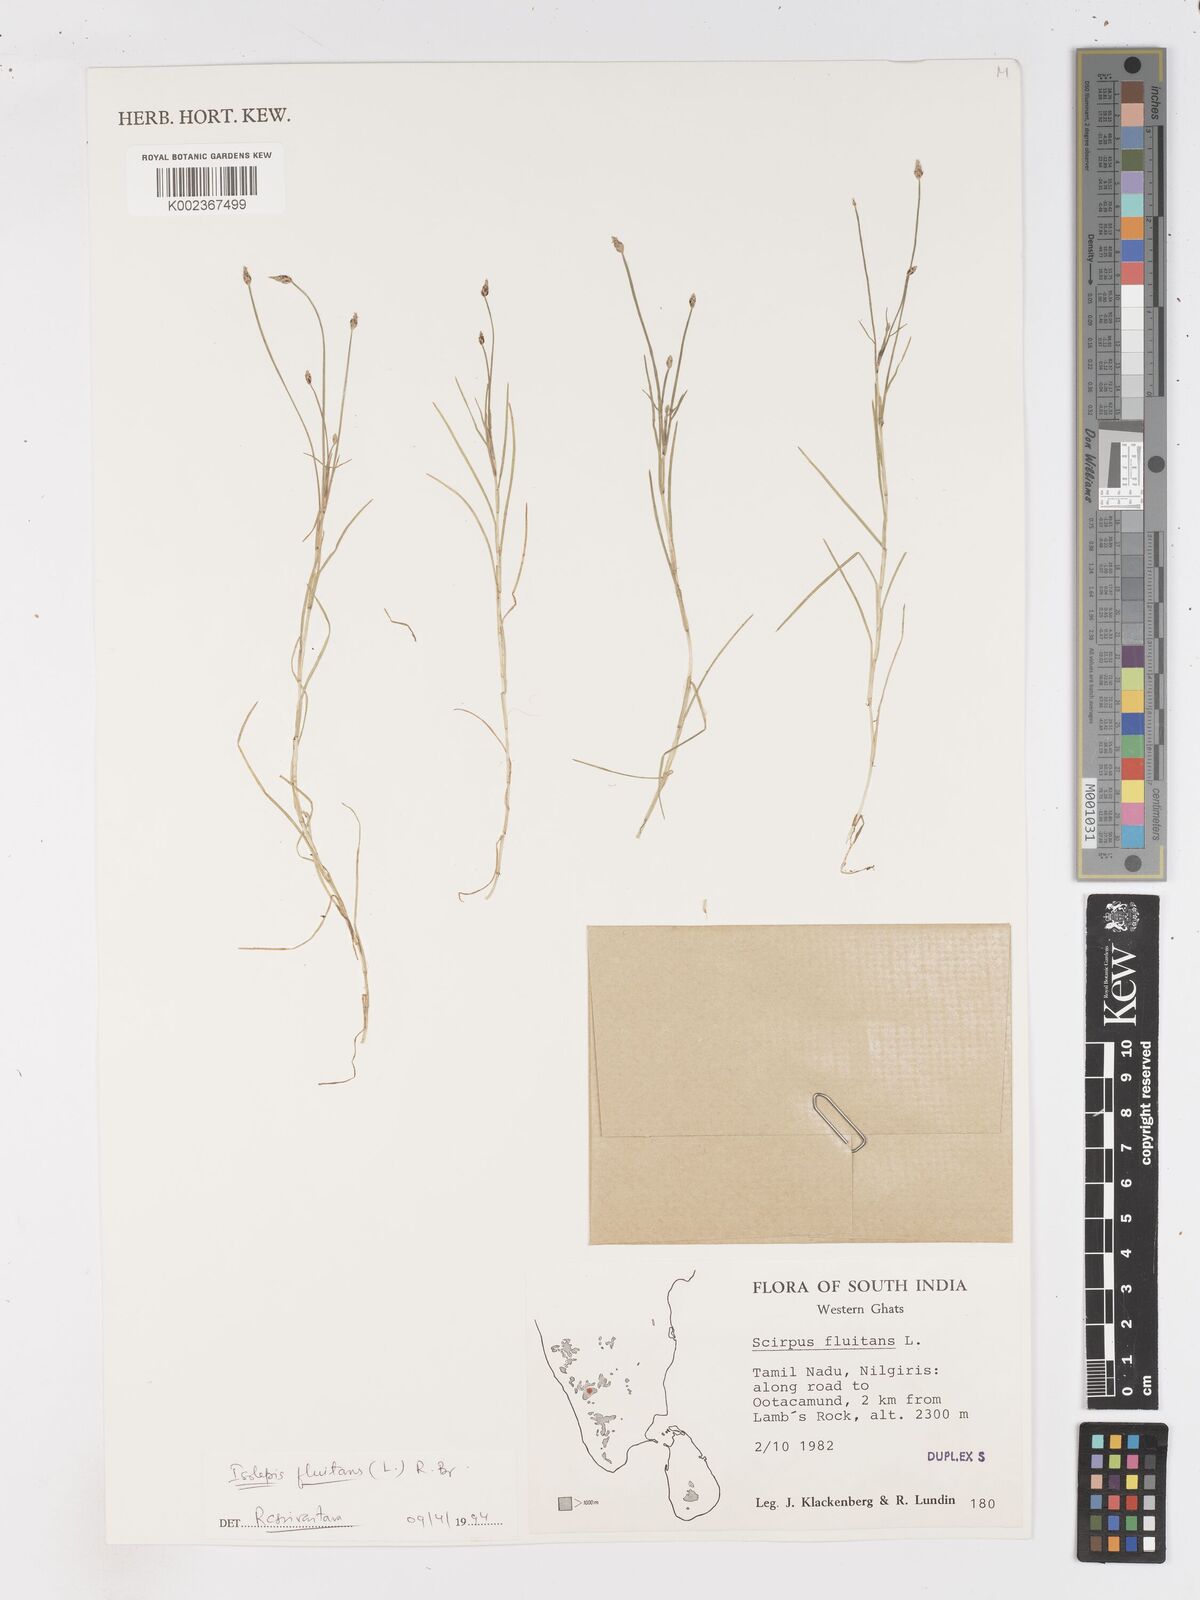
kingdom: Plantae
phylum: Tracheophyta
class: Liliopsida
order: Poales
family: Cyperaceae
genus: Isolepis
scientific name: Isolepis fluitans
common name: Floating club-rush
